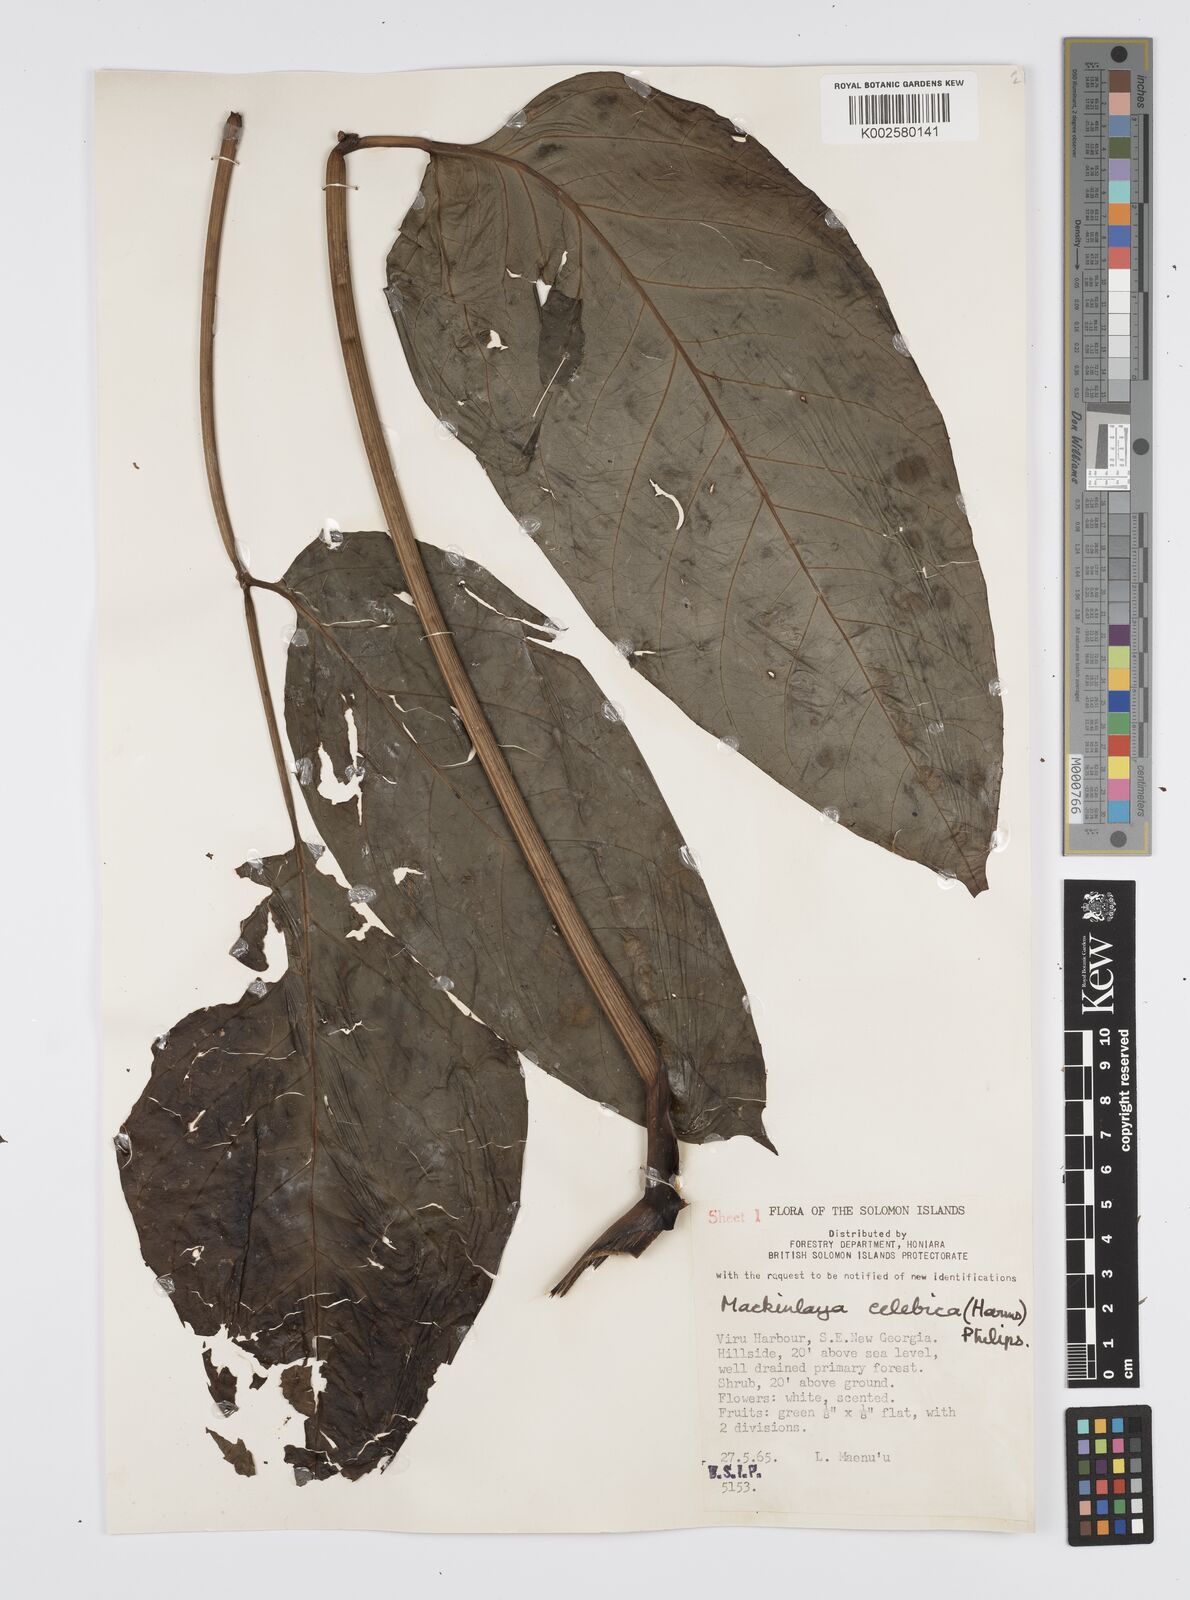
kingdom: Plantae
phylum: Tracheophyta
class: Magnoliopsida
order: Apiales
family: Apiaceae
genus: Mackinlaya
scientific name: Mackinlaya celebica
